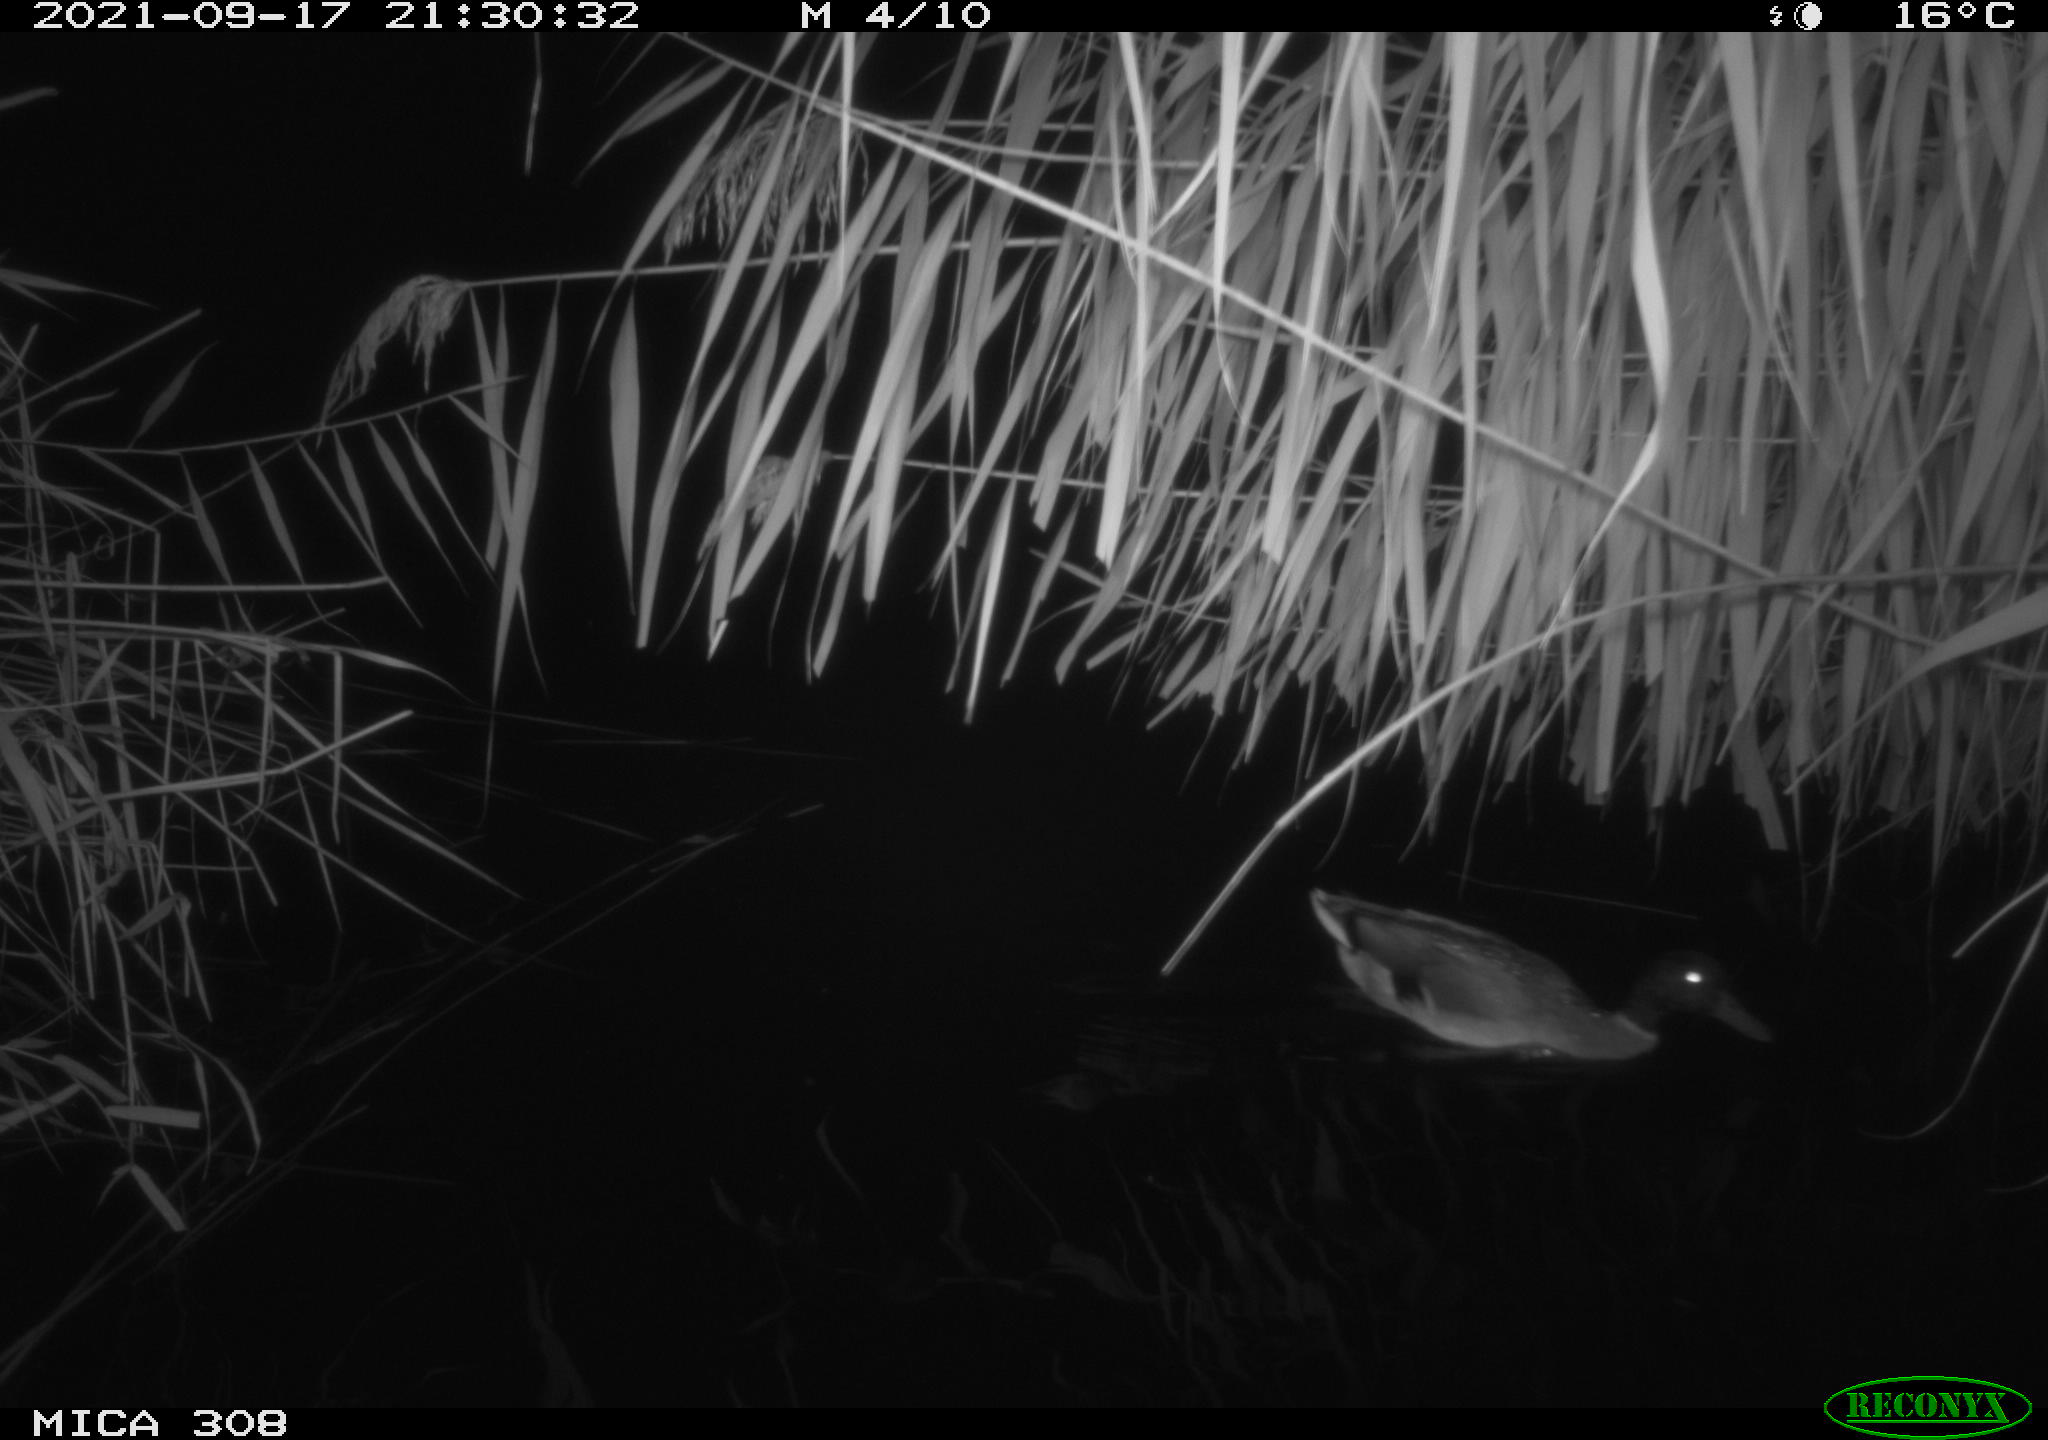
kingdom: Animalia
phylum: Chordata
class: Aves
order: Gruiformes
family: Rallidae
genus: Gallinula
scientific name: Gallinula chloropus
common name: Common moorhen
